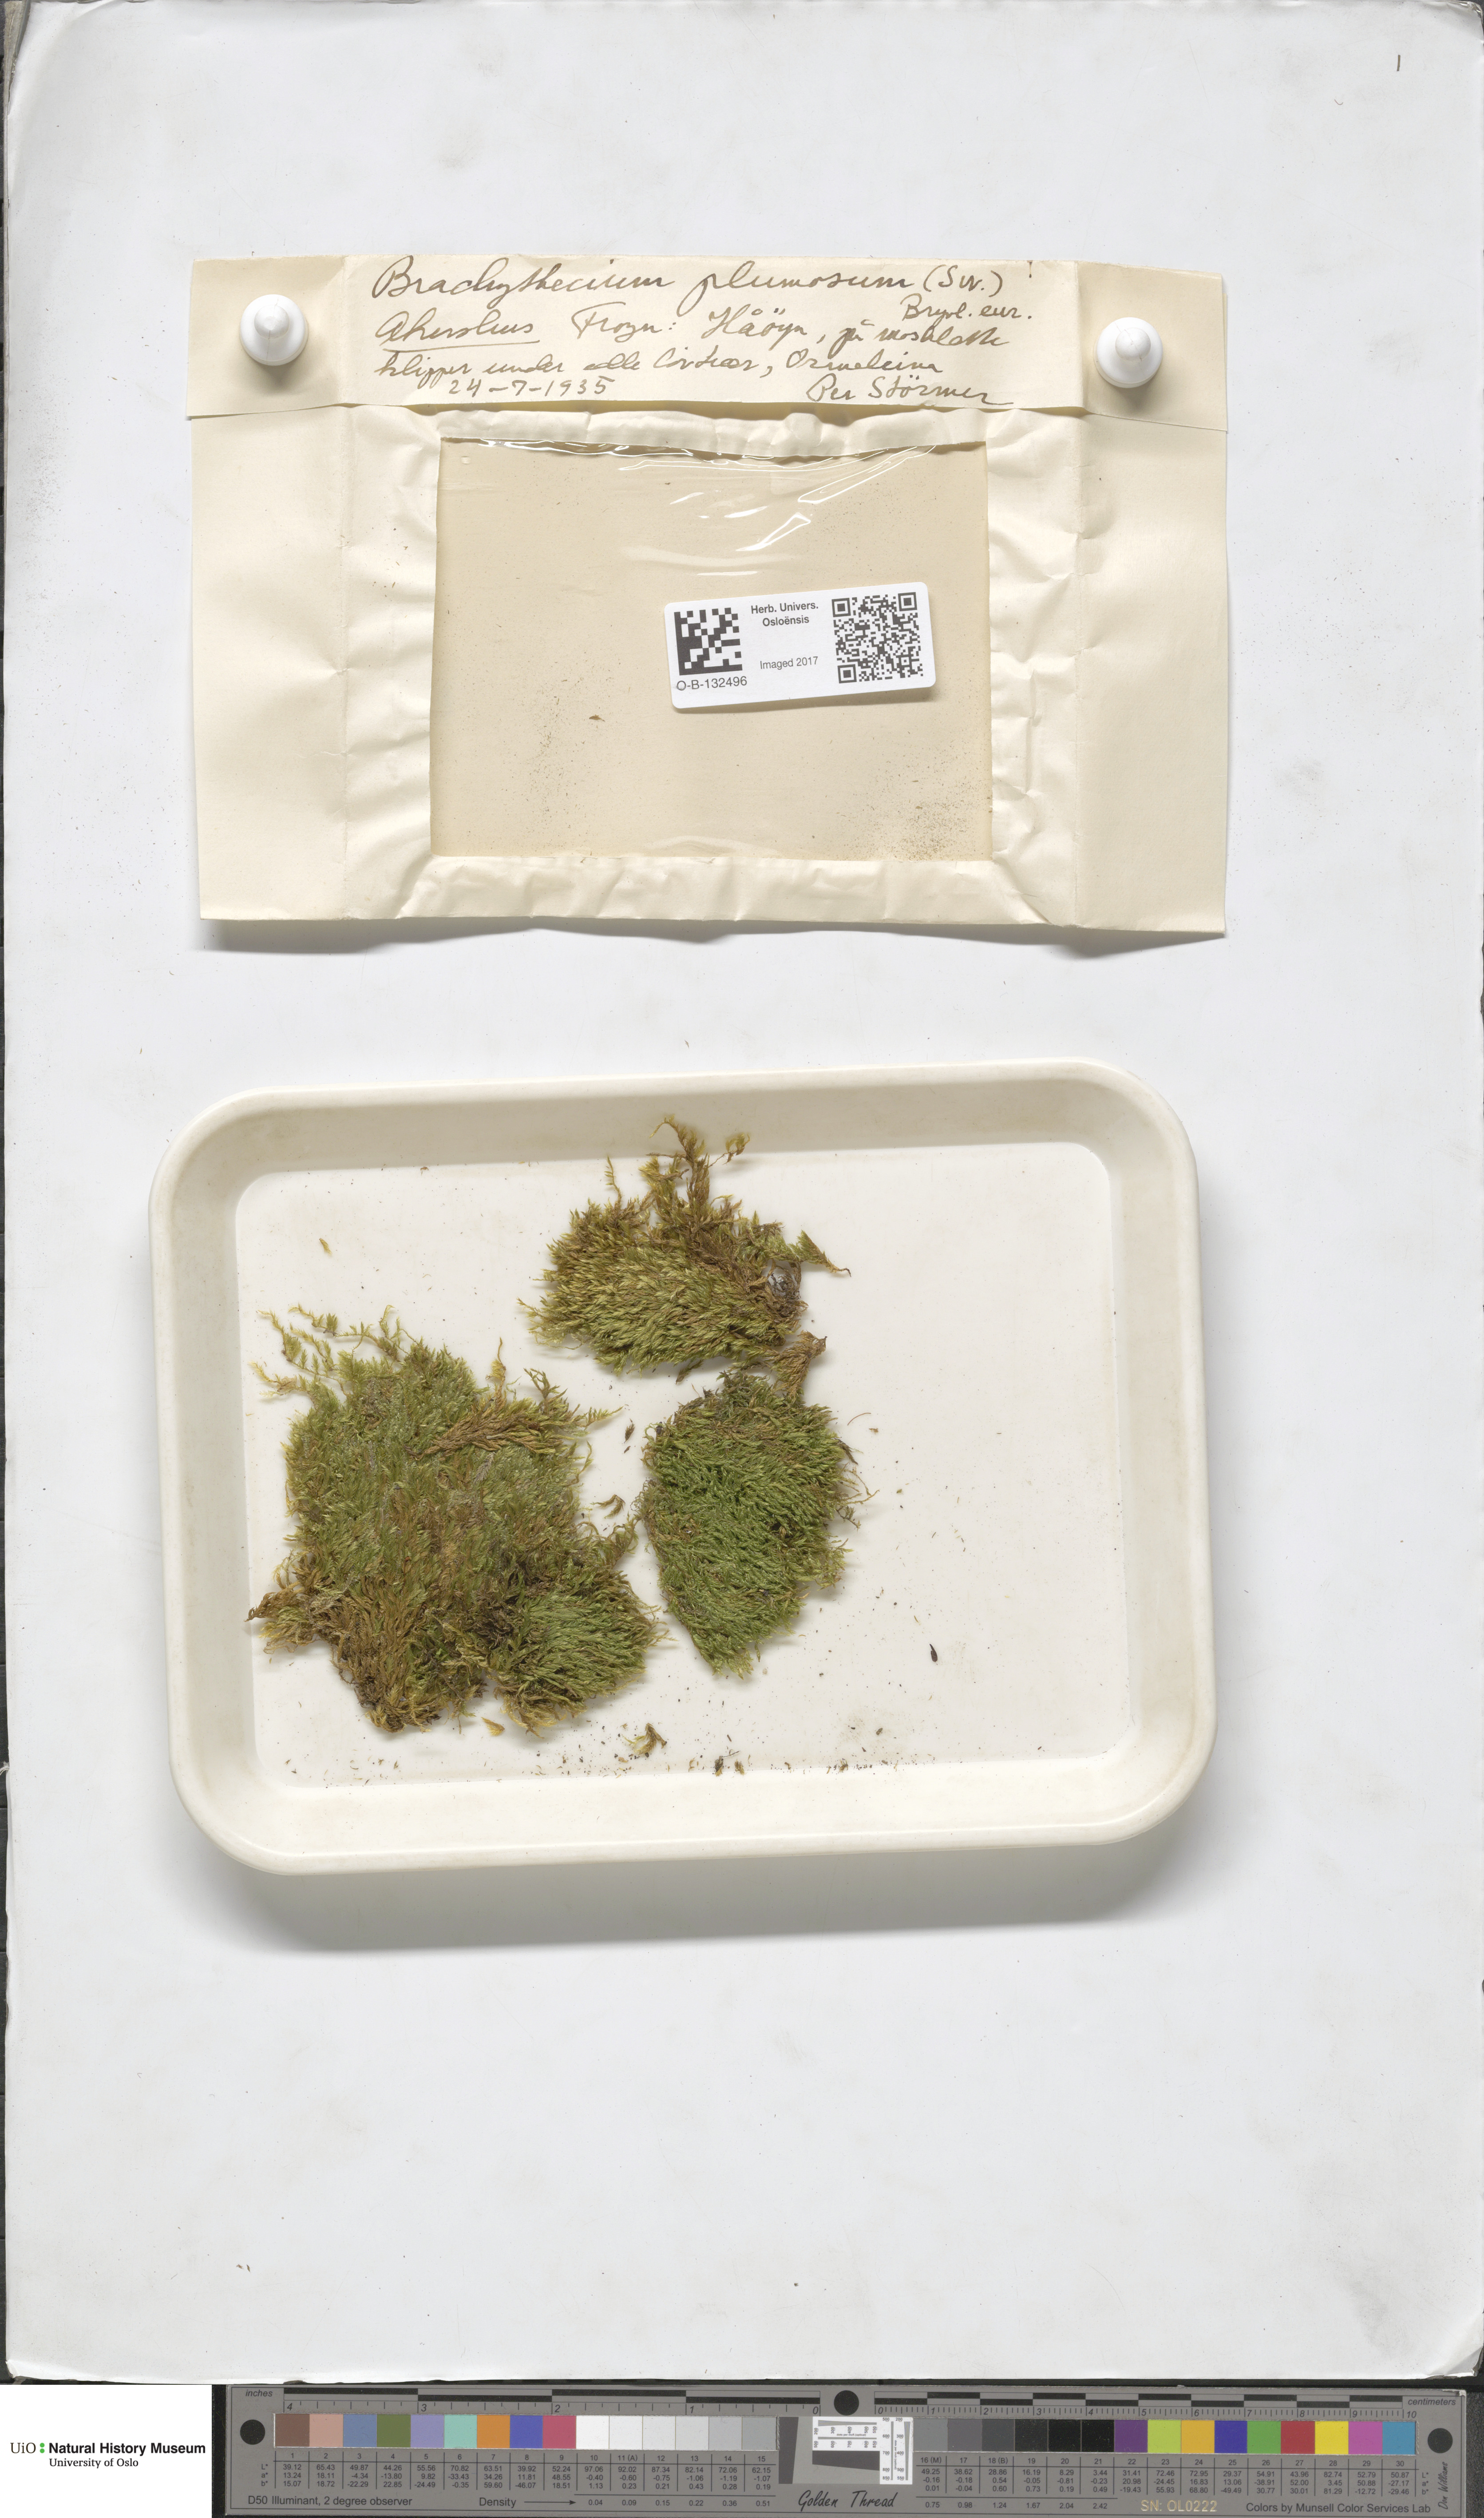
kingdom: Plantae
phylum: Bryophyta
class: Bryopsida
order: Hypnales
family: Brachytheciaceae
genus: Sciuro-hypnum
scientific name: Sciuro-hypnum plumosum
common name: Rusty feather-moss
